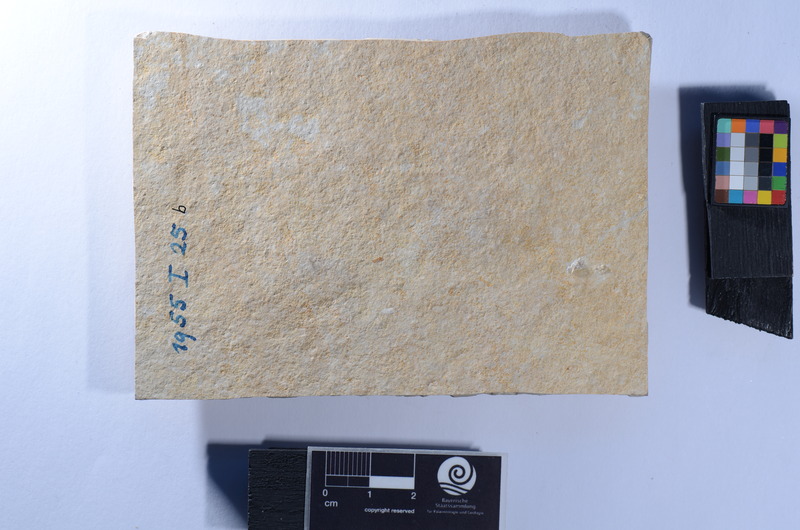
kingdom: Animalia
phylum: Chordata
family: Ophiopsiellidae
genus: Ophiopsis
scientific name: Ophiopsis
